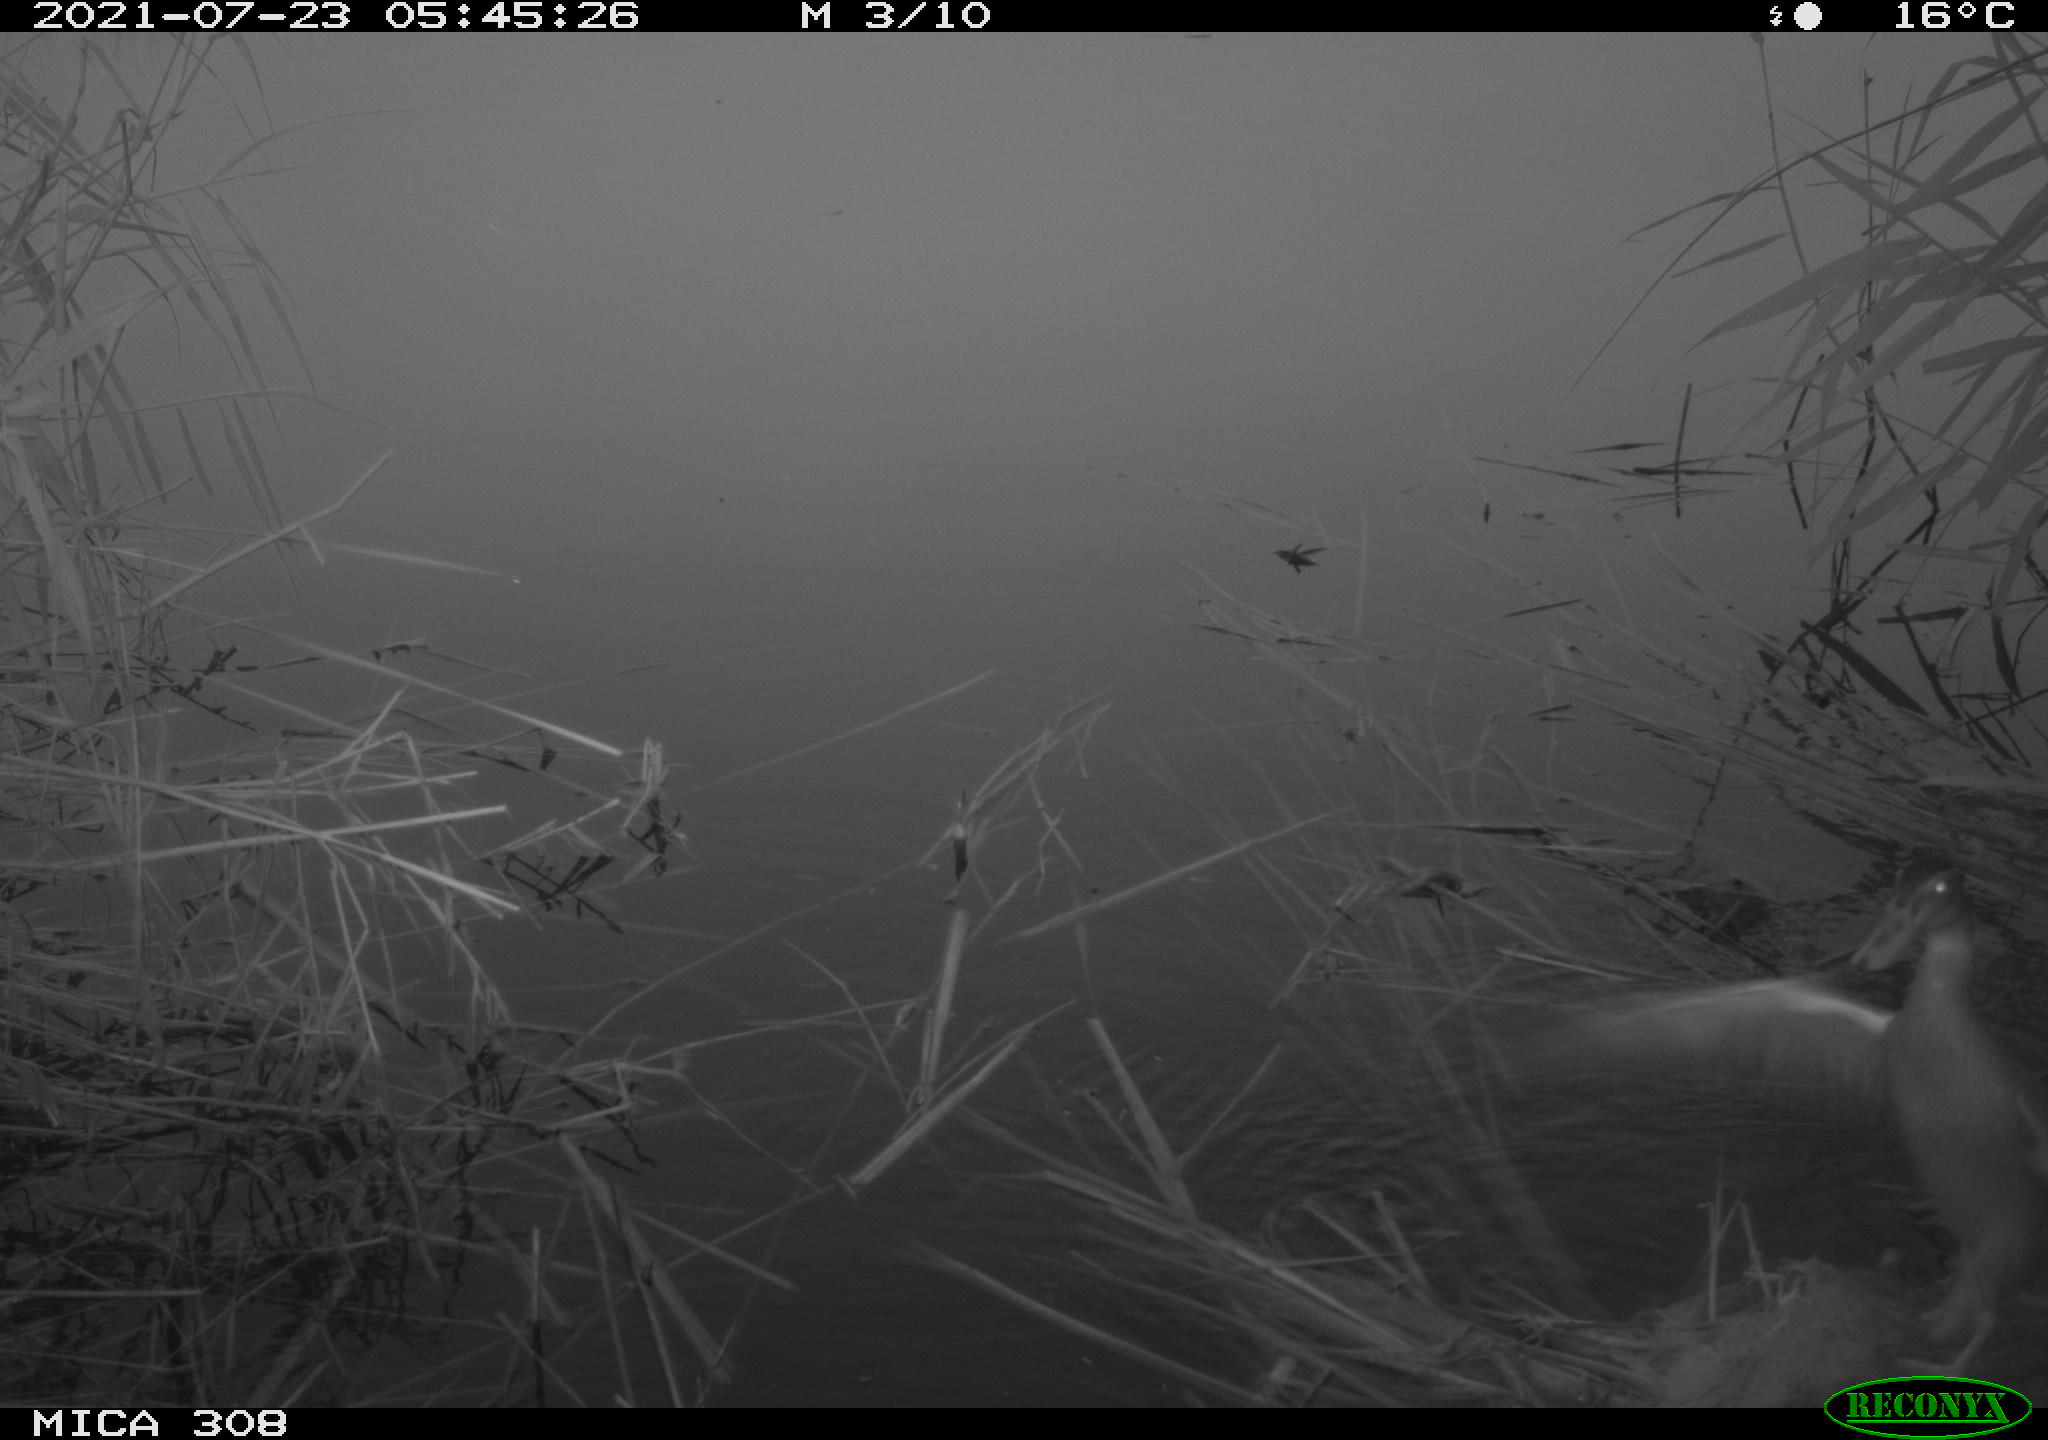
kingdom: Animalia
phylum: Chordata
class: Aves
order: Anseriformes
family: Anatidae
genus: Anas
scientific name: Anas platyrhynchos
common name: Mallard
